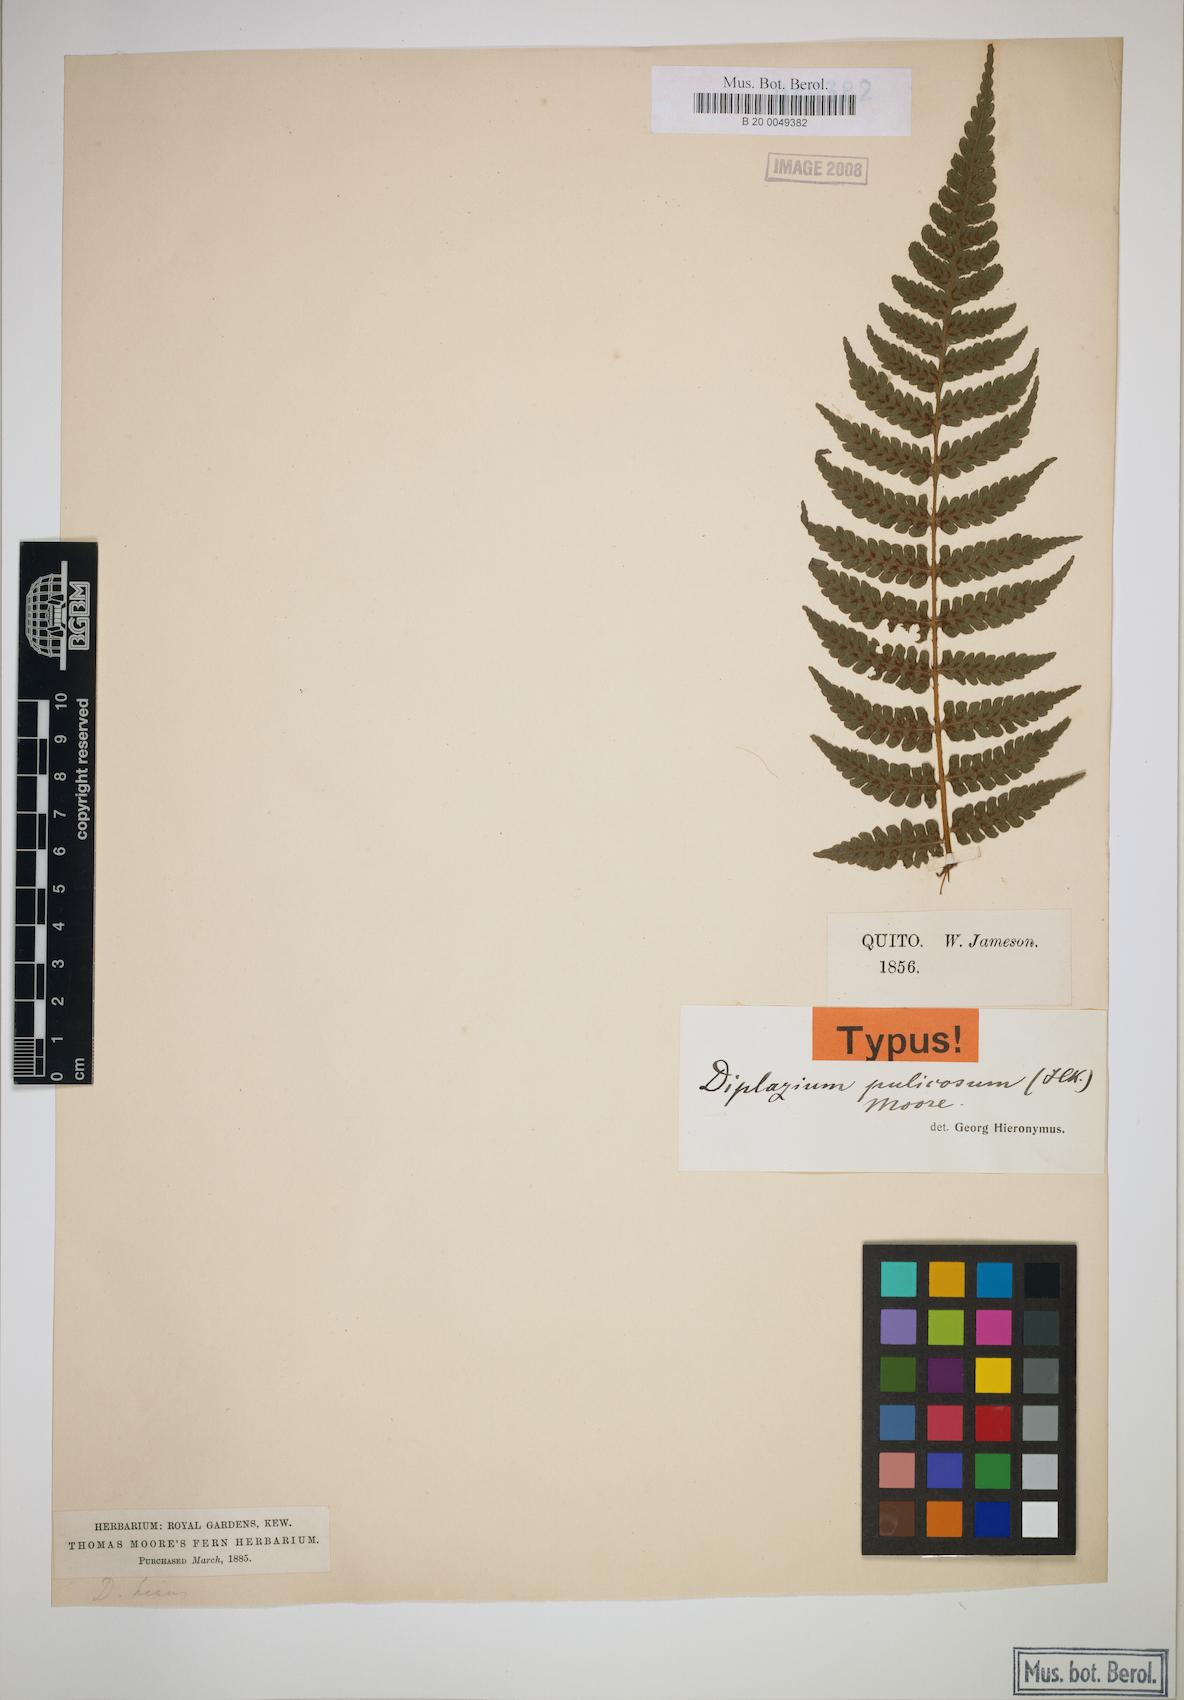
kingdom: Plantae
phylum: Tracheophyta
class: Polypodiopsida
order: Polypodiales
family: Athyriaceae
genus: Diplazium
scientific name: Diplazium pulicosum
